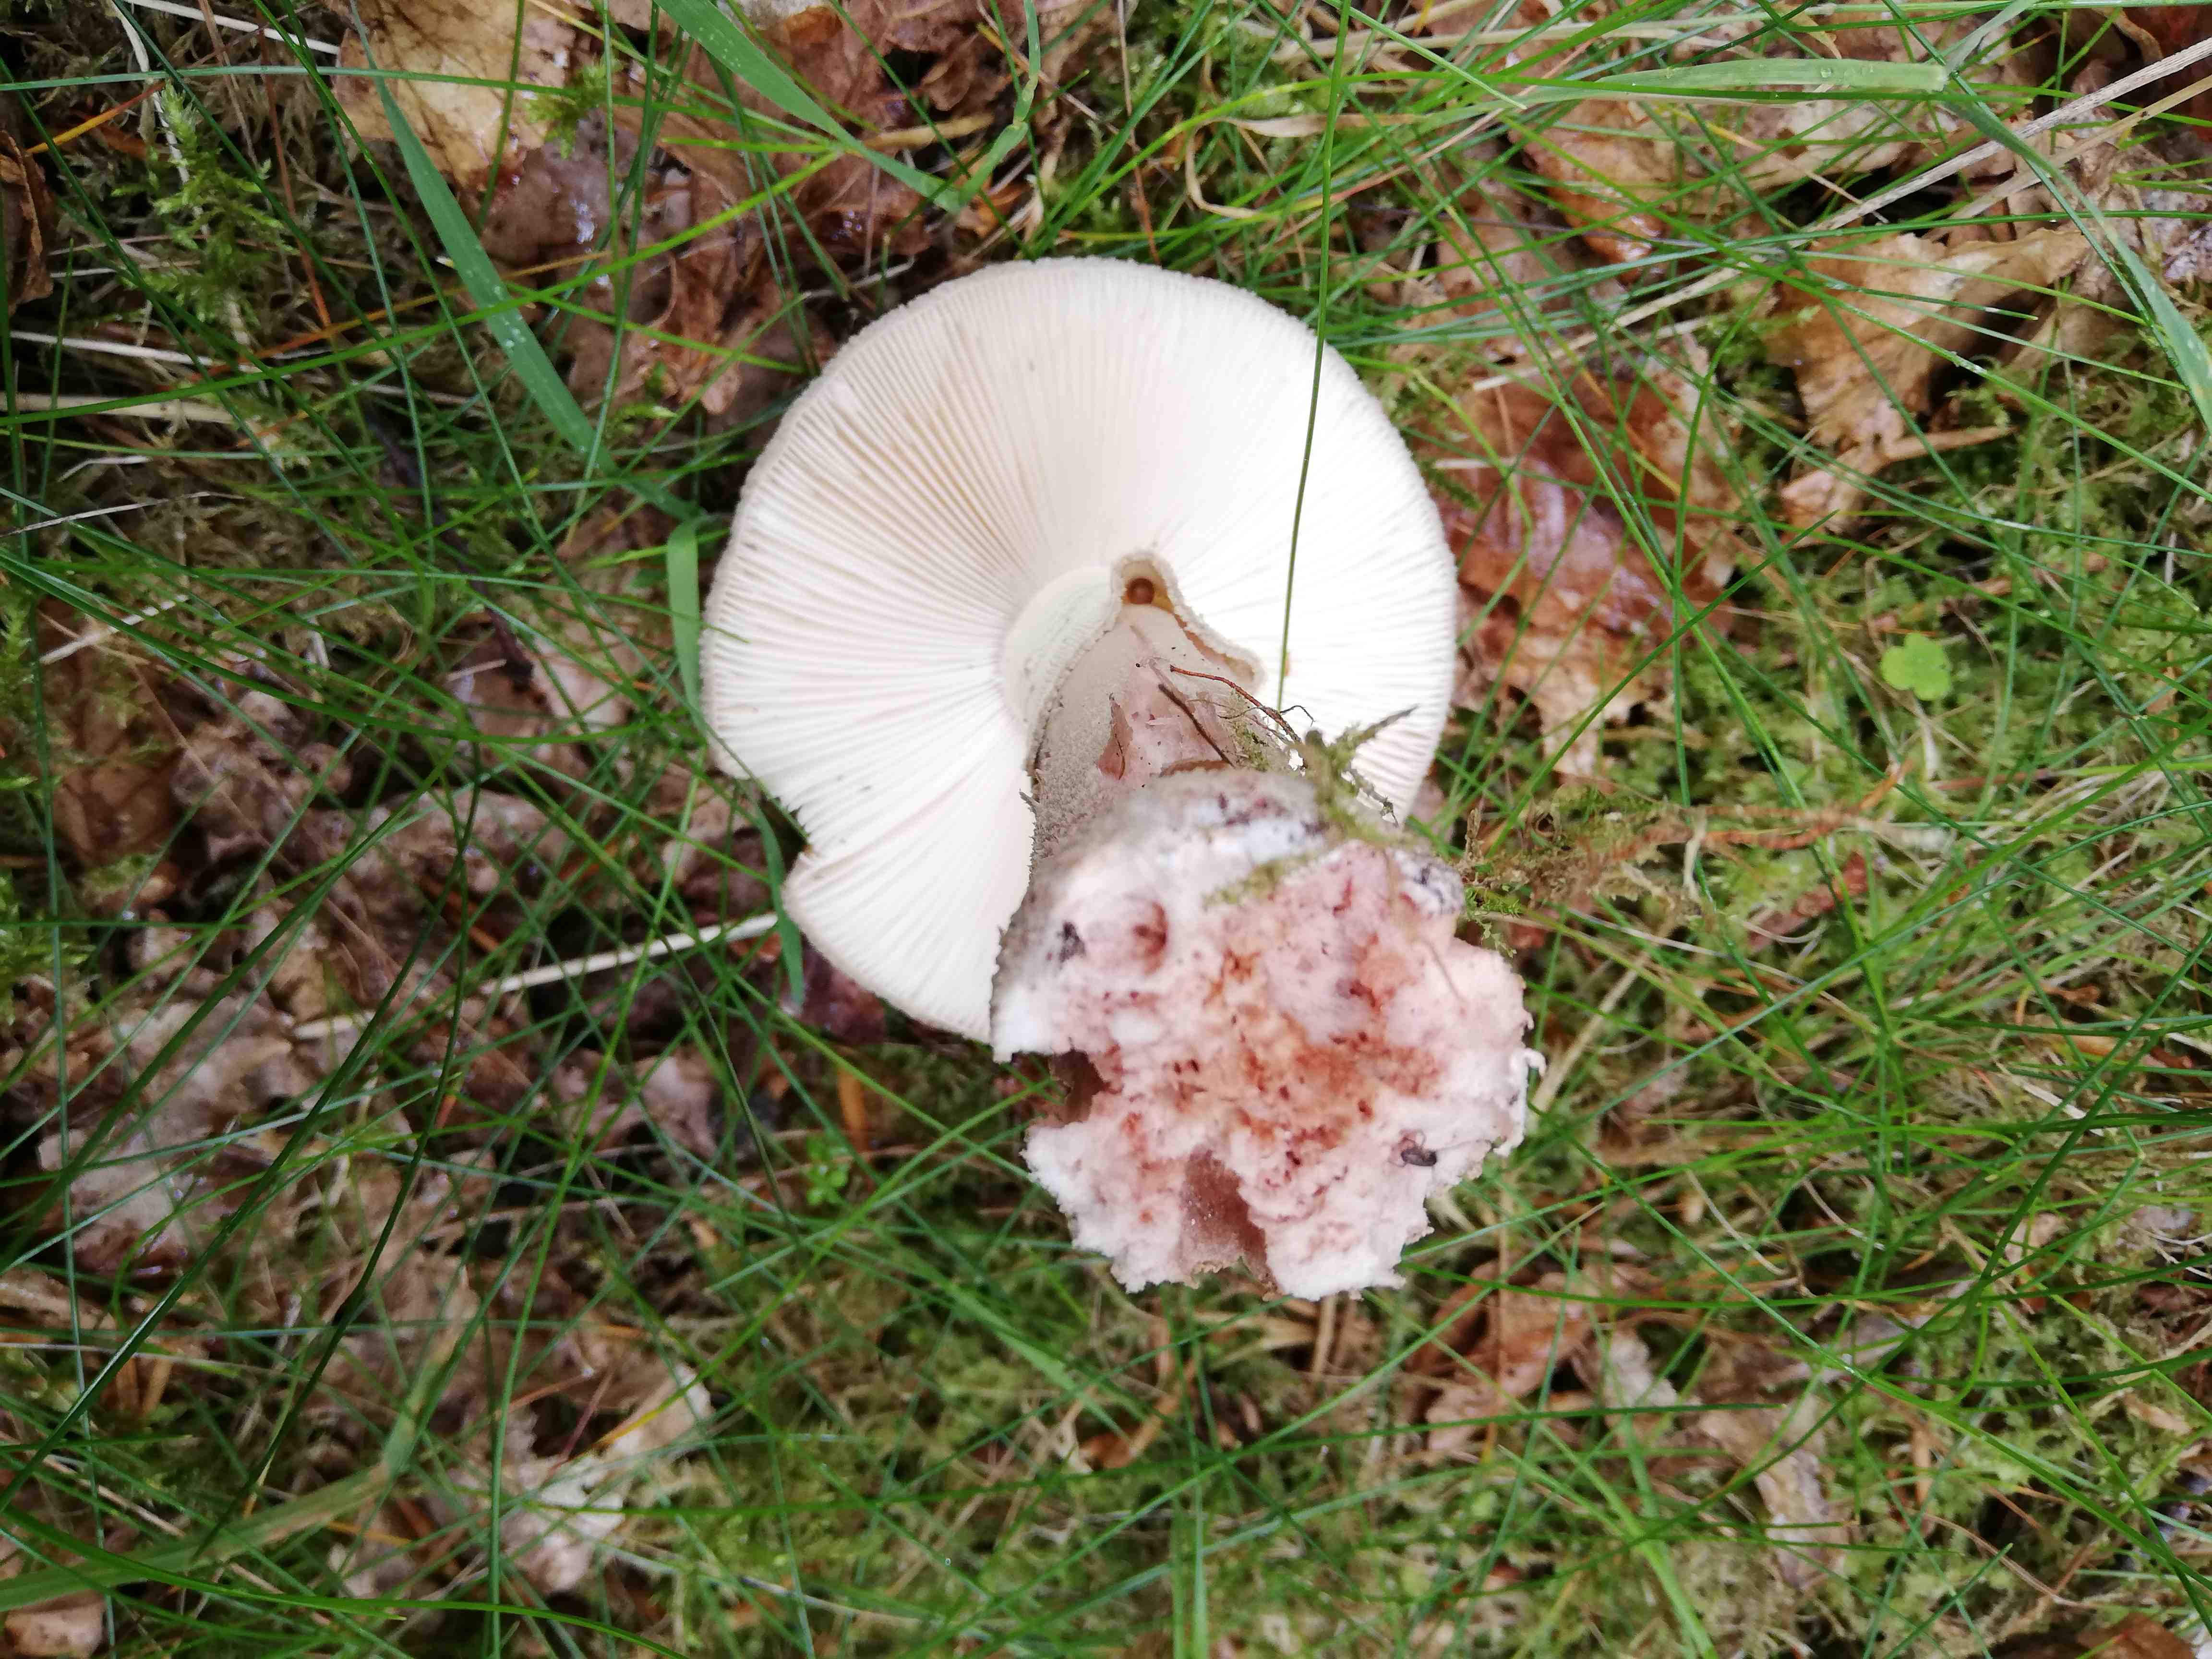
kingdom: Fungi
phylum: Basidiomycota
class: Agaricomycetes
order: Agaricales
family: Amanitaceae
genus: Amanita
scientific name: Amanita rubescens
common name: rødmende fluesvamp
